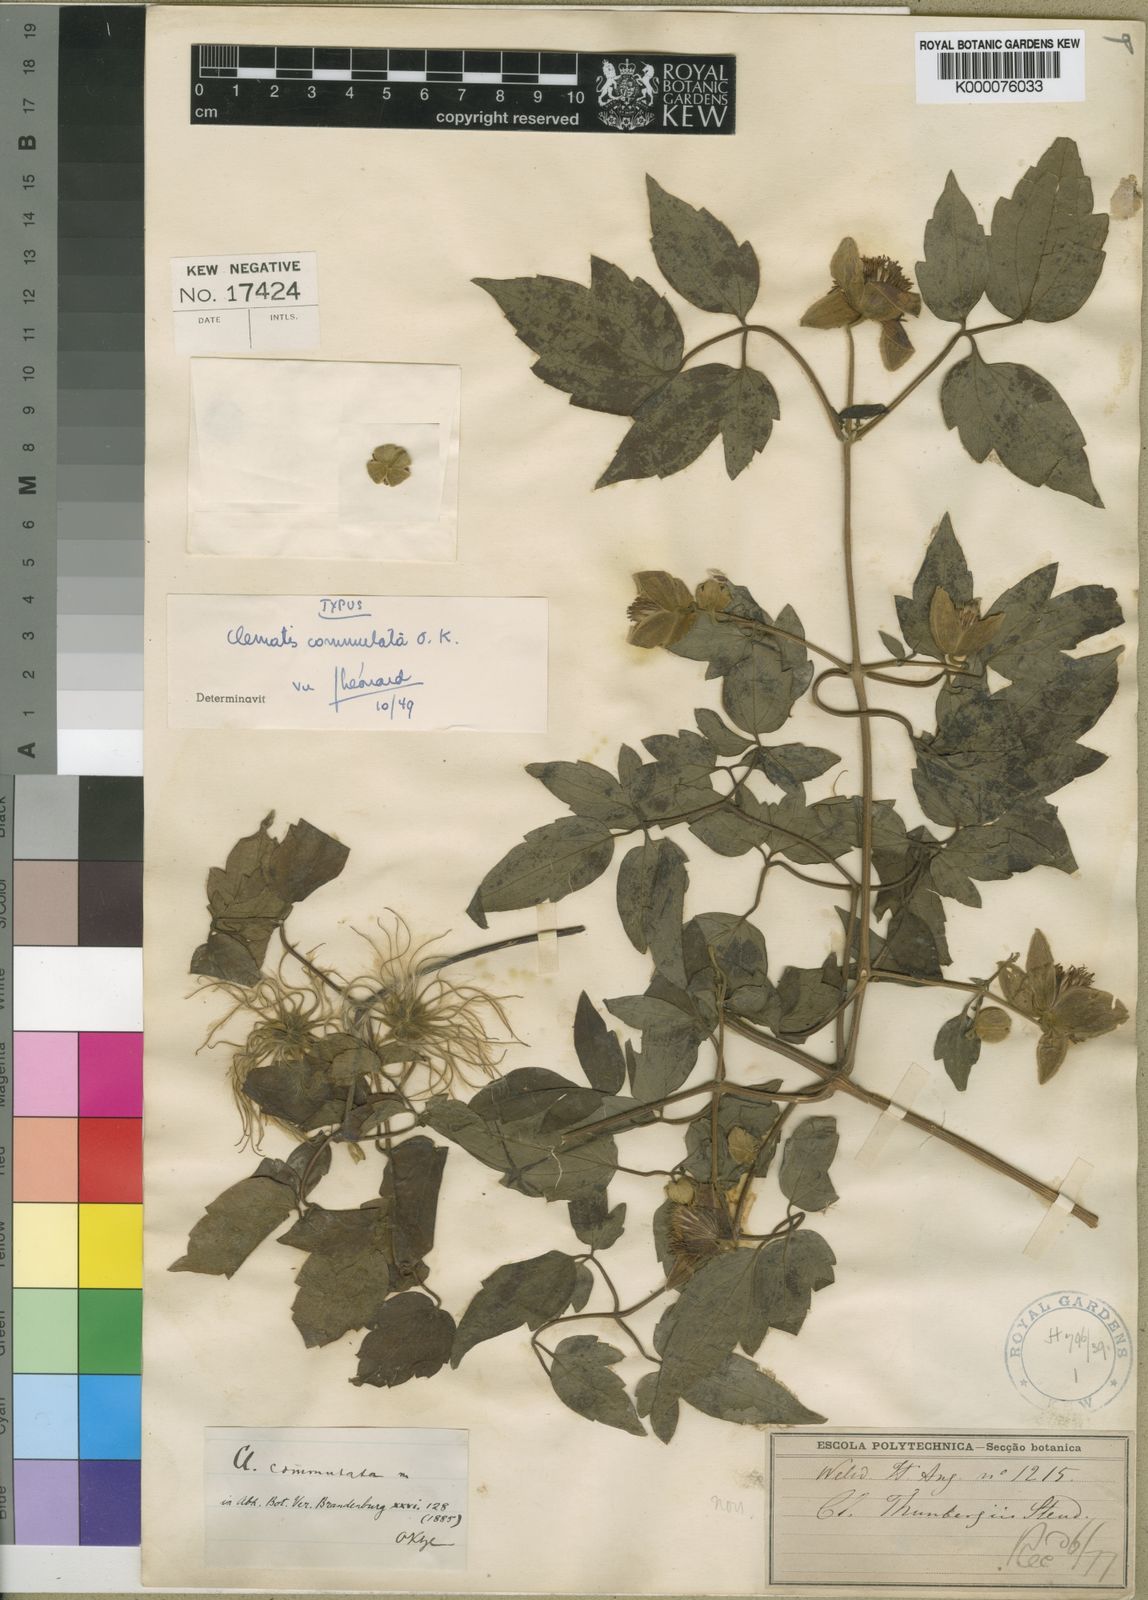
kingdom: Plantae
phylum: Tracheophyta
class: Magnoliopsida
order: Ranunculales
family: Ranunculaceae
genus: Clematis
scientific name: Clematis commutata
